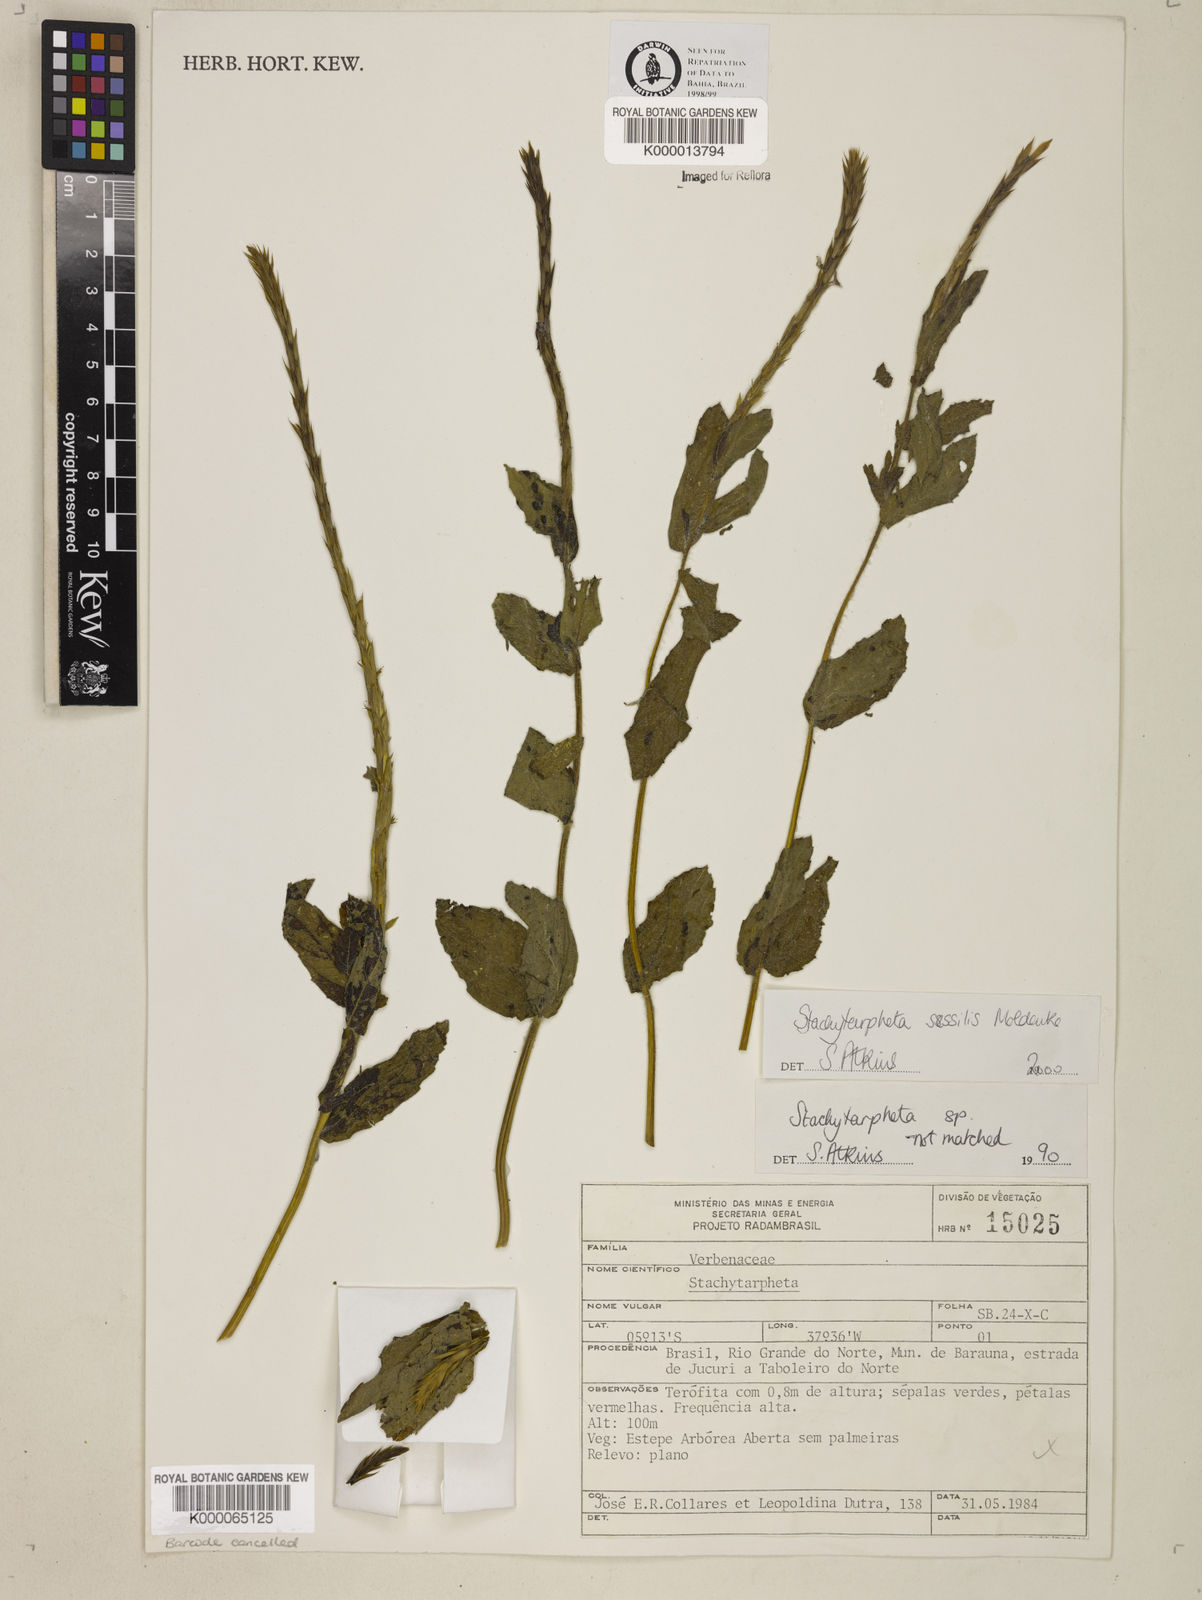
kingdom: Plantae
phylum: Tracheophyta
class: Magnoliopsida
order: Lamiales
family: Verbenaceae
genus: Stachytarpheta
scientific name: Stachytarpheta sessilis
